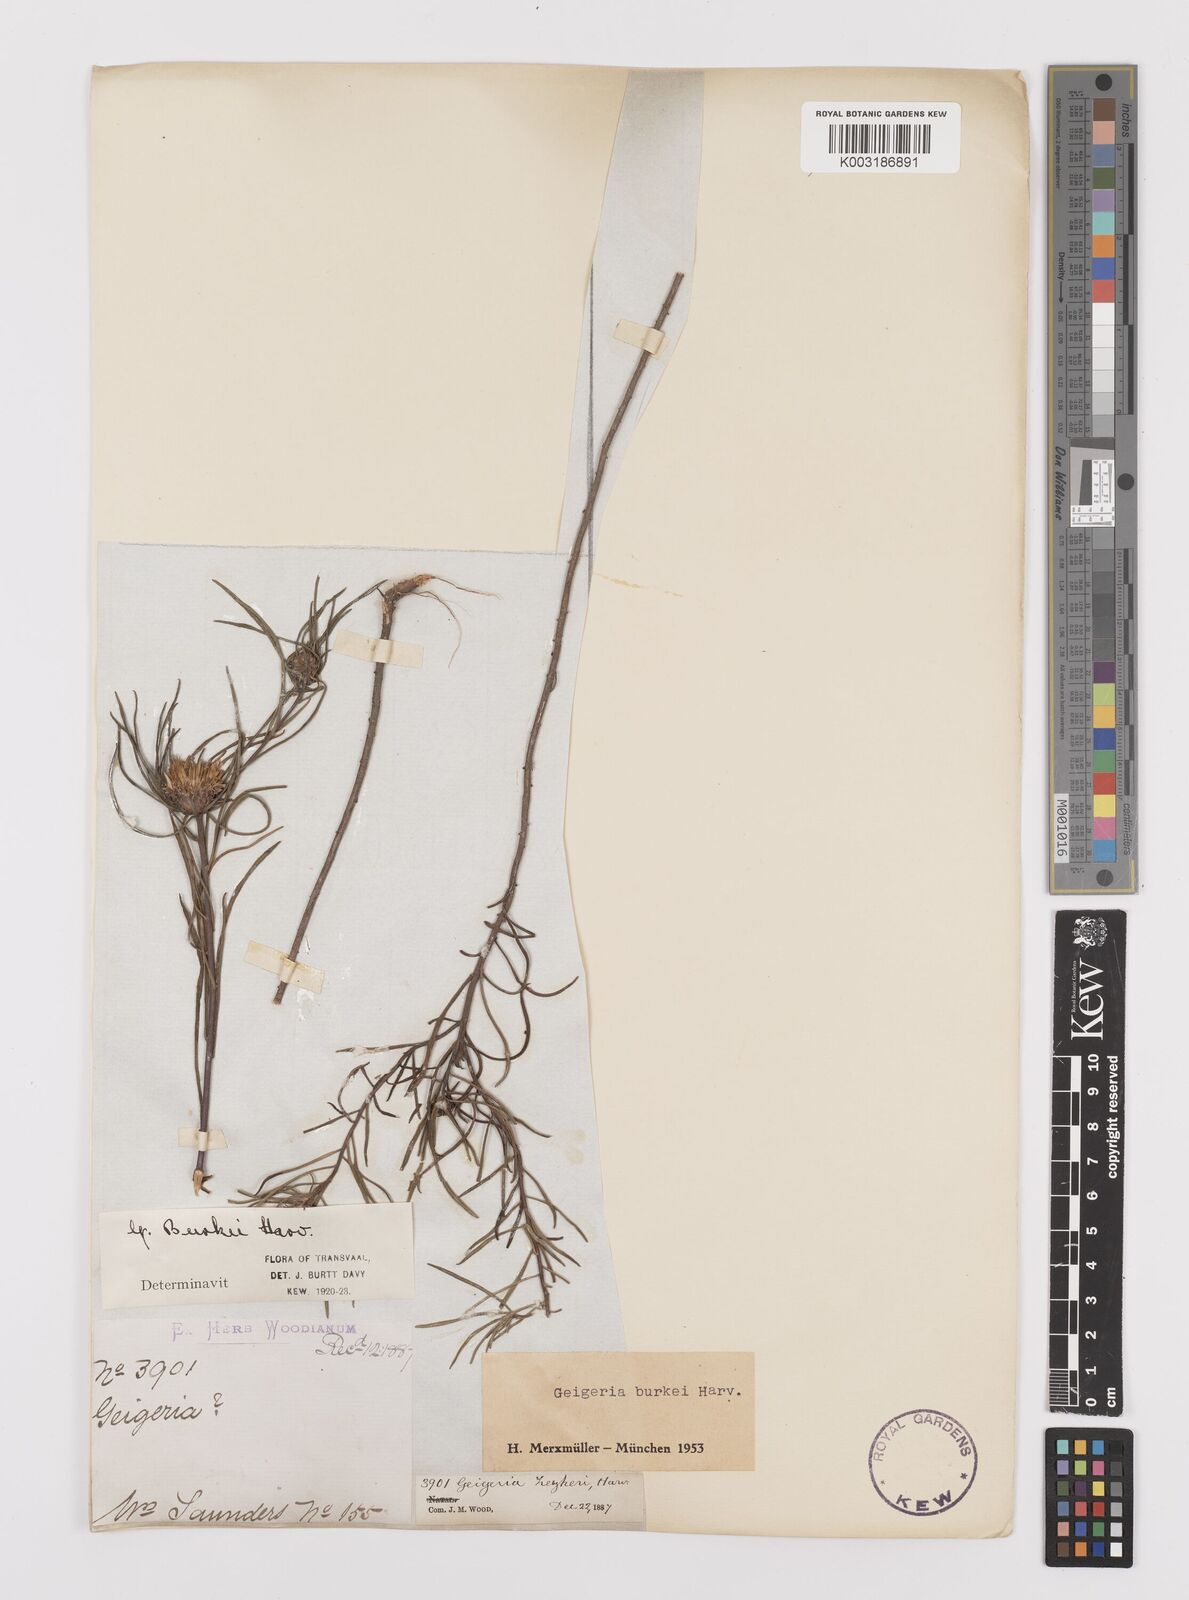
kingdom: Plantae
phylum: Tracheophyta
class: Magnoliopsida
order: Asterales
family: Asteraceae
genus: Geigeria
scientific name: Geigeria burkei
